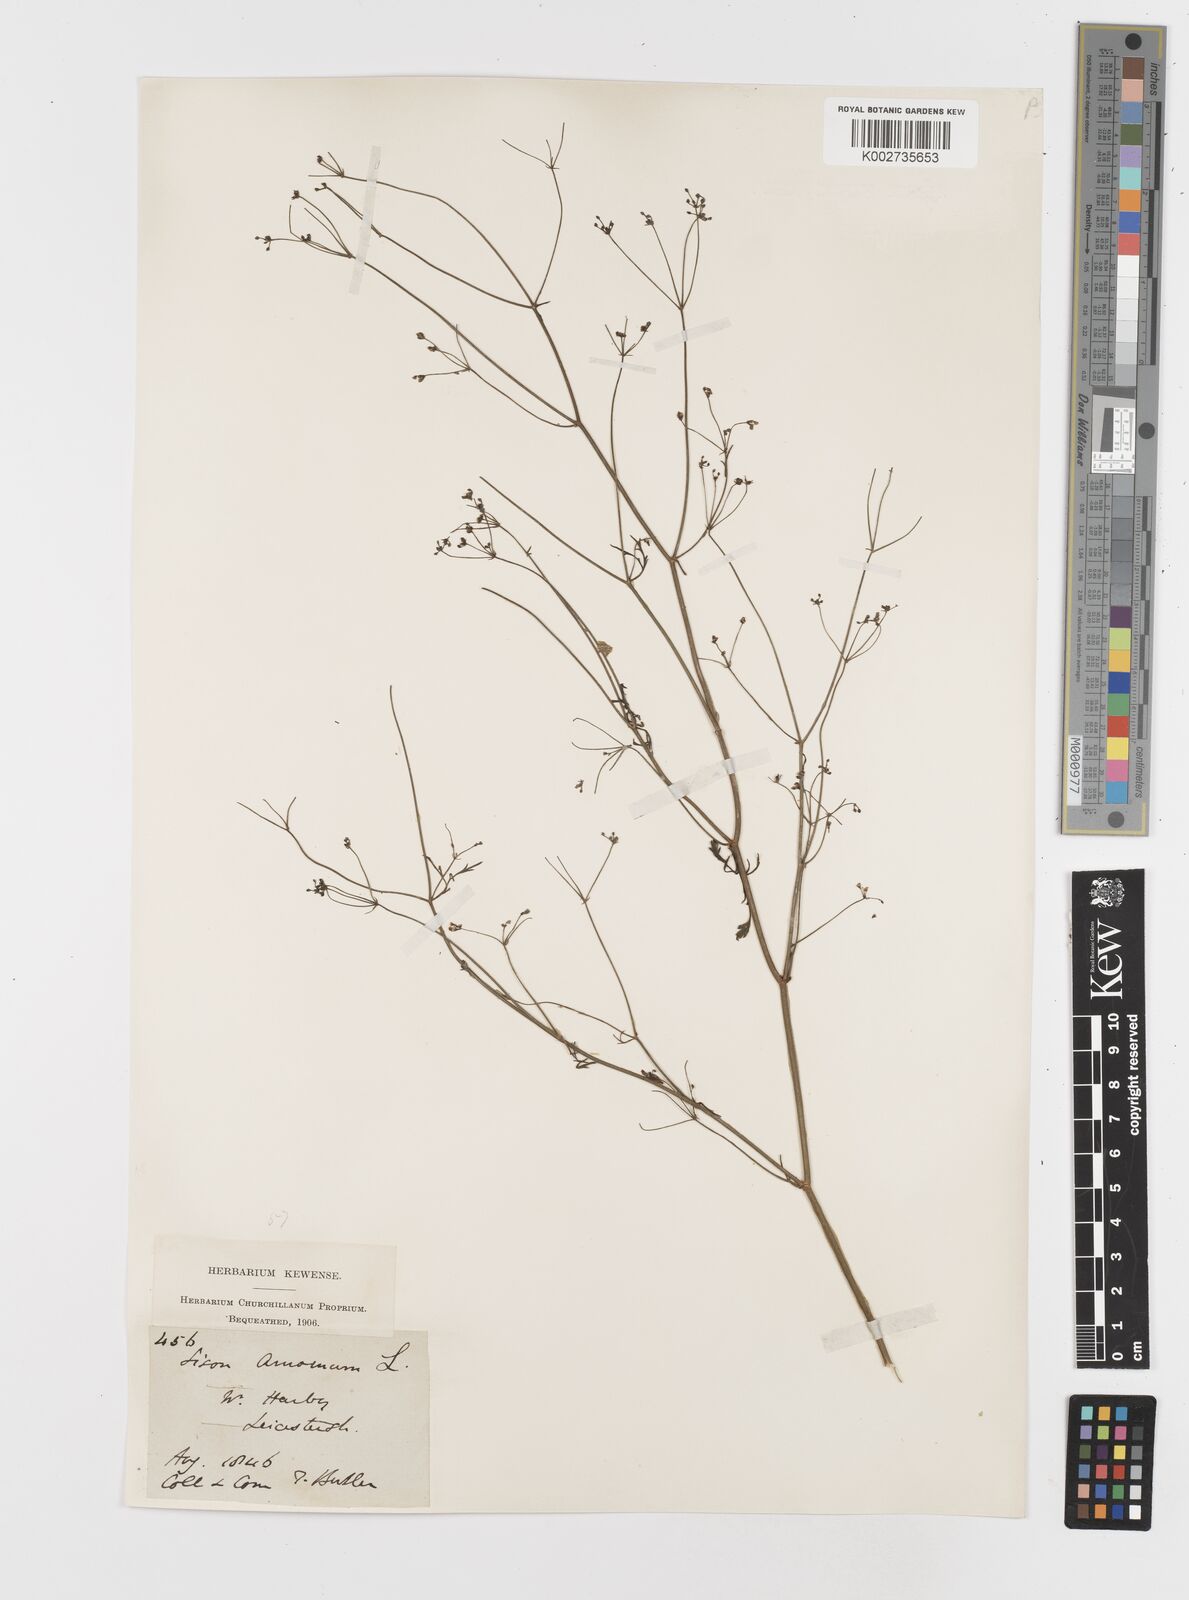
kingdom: Plantae
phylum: Tracheophyta
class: Magnoliopsida
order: Apiales
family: Apiaceae
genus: Sison
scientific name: Sison amomum
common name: Stone-parsley
